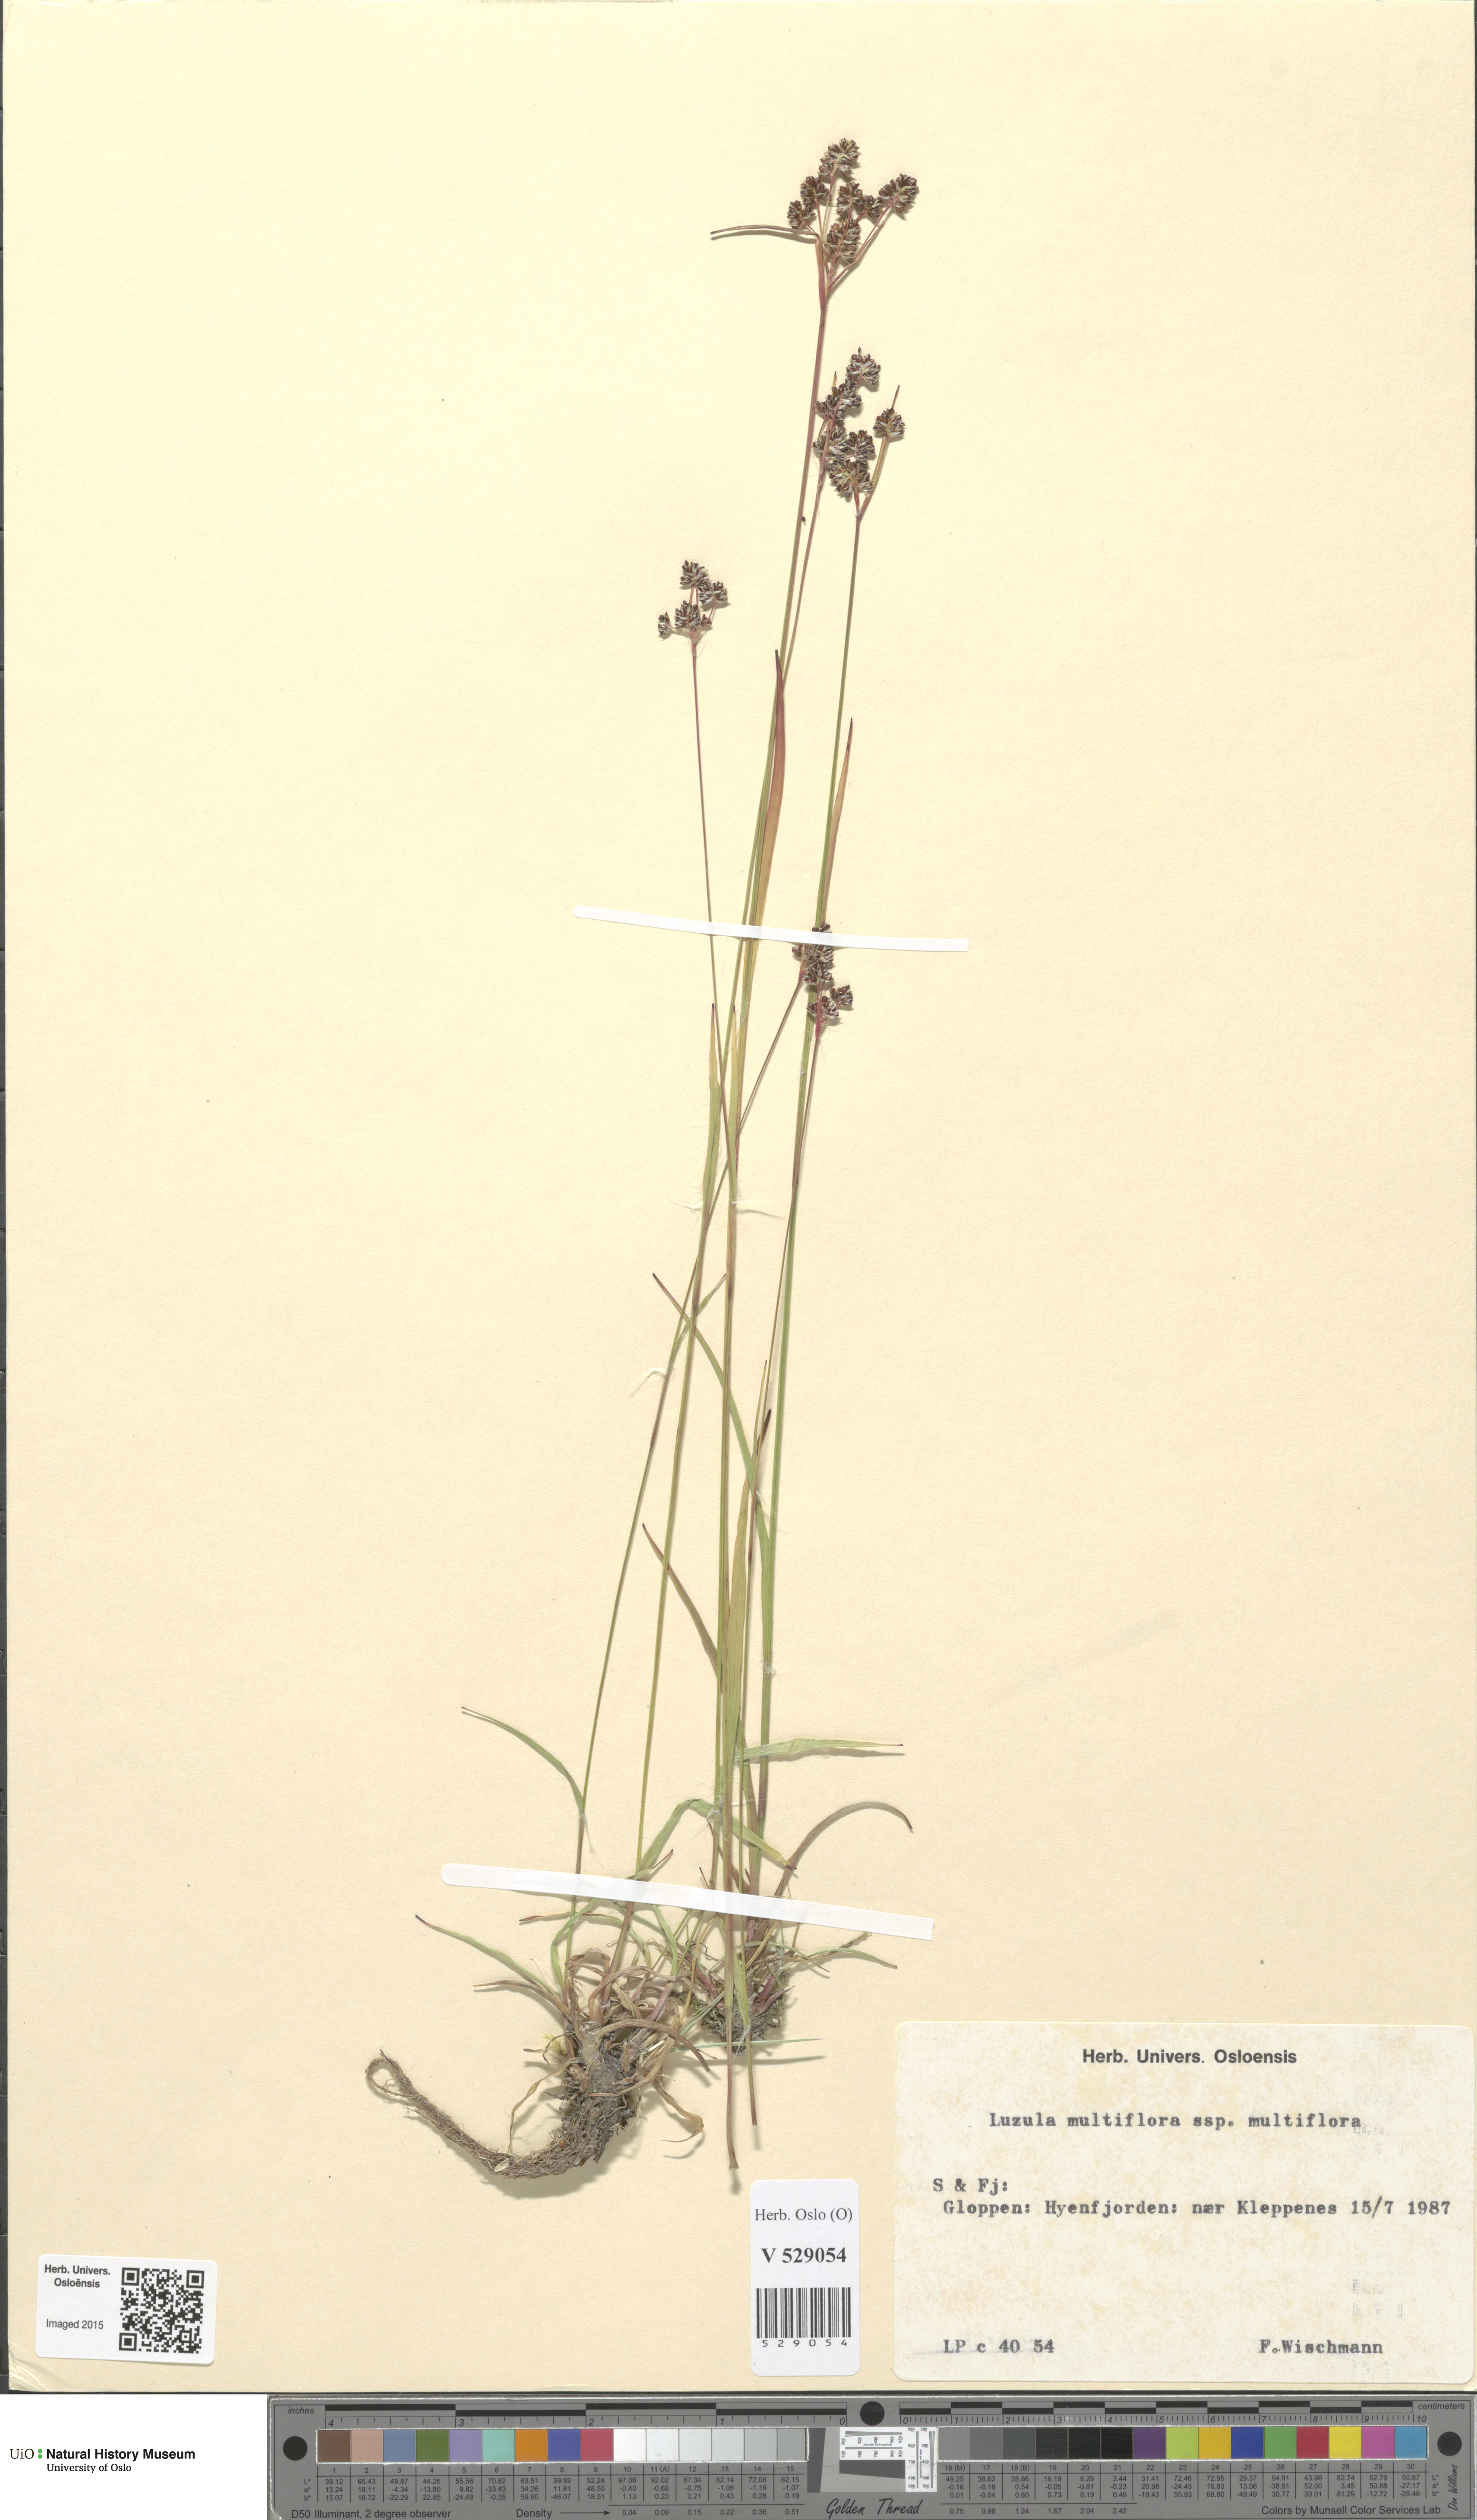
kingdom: Plantae
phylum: Tracheophyta
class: Liliopsida
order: Poales
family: Juncaceae
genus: Luzula
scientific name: Luzula multiflora
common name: Heath wood-rush
